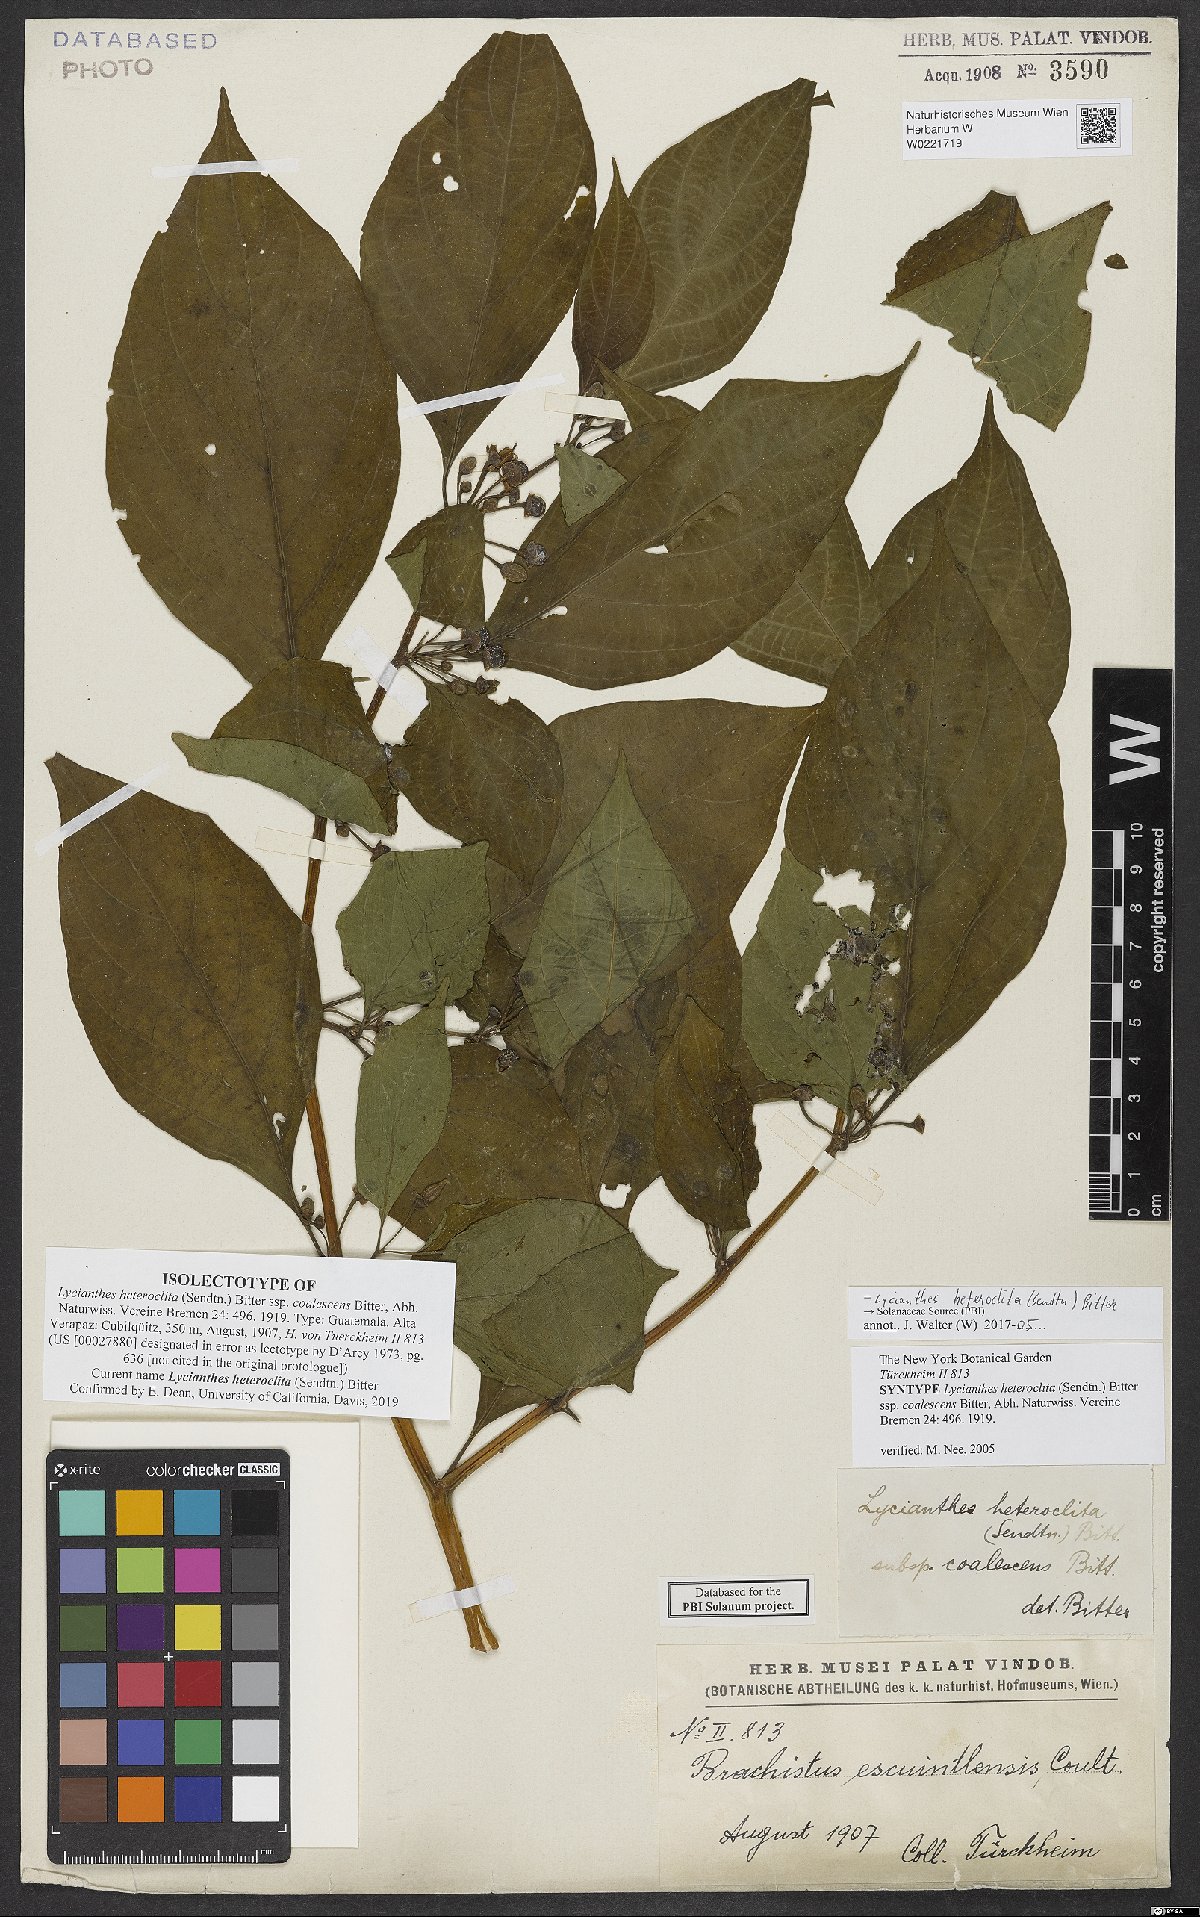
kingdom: Plantae
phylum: Tracheophyta
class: Magnoliopsida
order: Solanales
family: Solanaceae
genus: Lycianthes
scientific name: Lycianthes heteroclita
